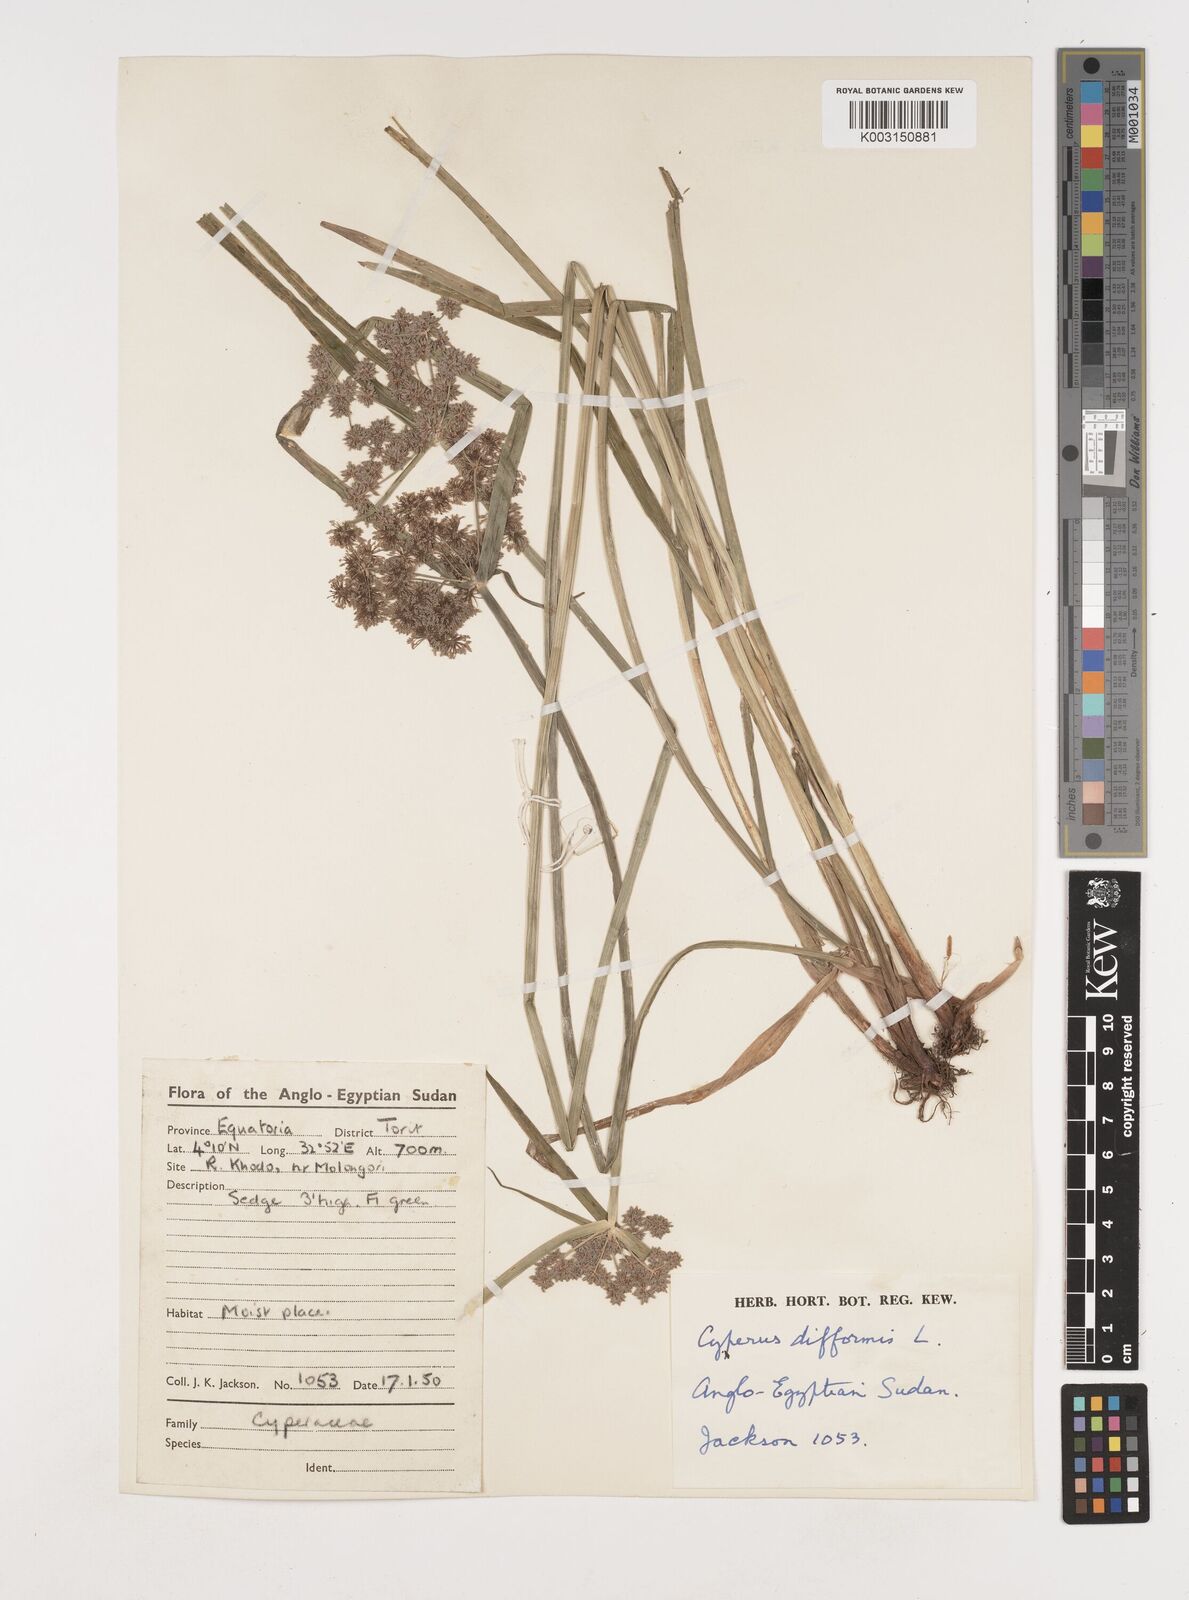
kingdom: Plantae
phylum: Tracheophyta
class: Liliopsida
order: Poales
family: Cyperaceae
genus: Cyperus
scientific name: Cyperus difformis
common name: Variable flatsedge
